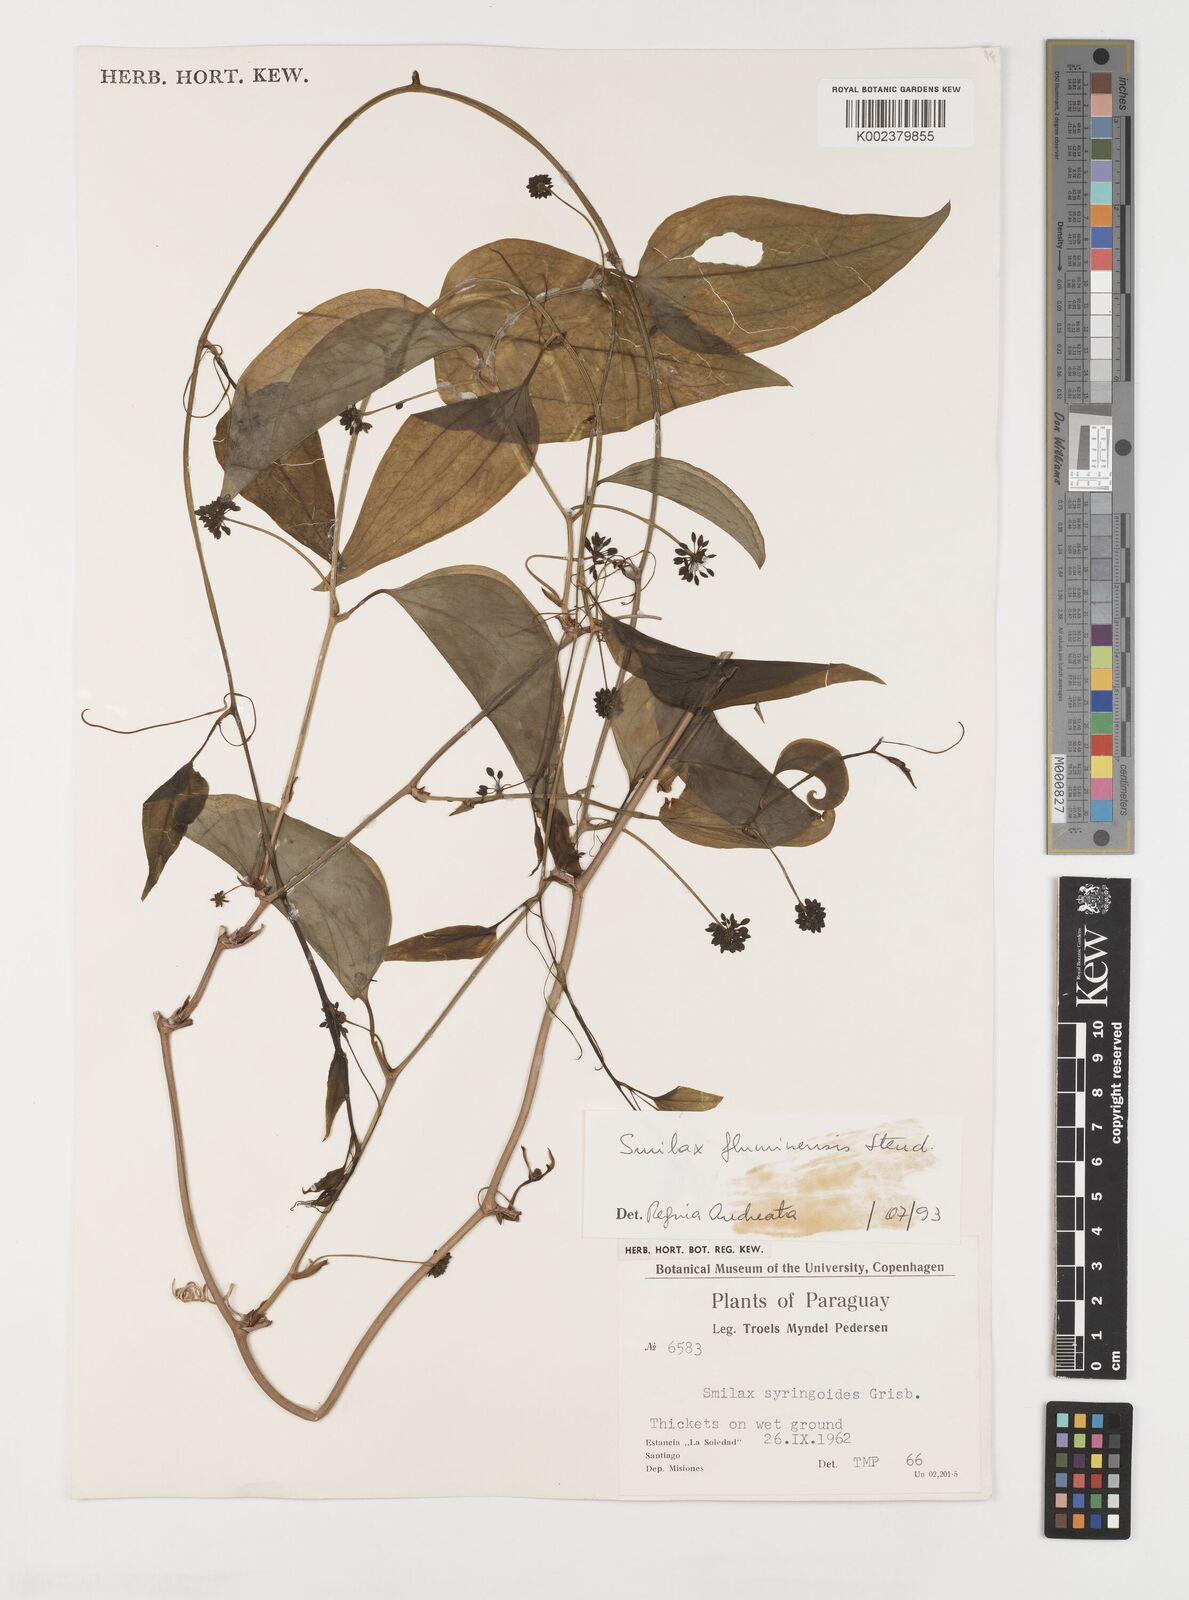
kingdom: Plantae
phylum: Tracheophyta
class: Liliopsida
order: Liliales
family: Smilacaceae
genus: Smilax
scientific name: Smilax fluminensis
